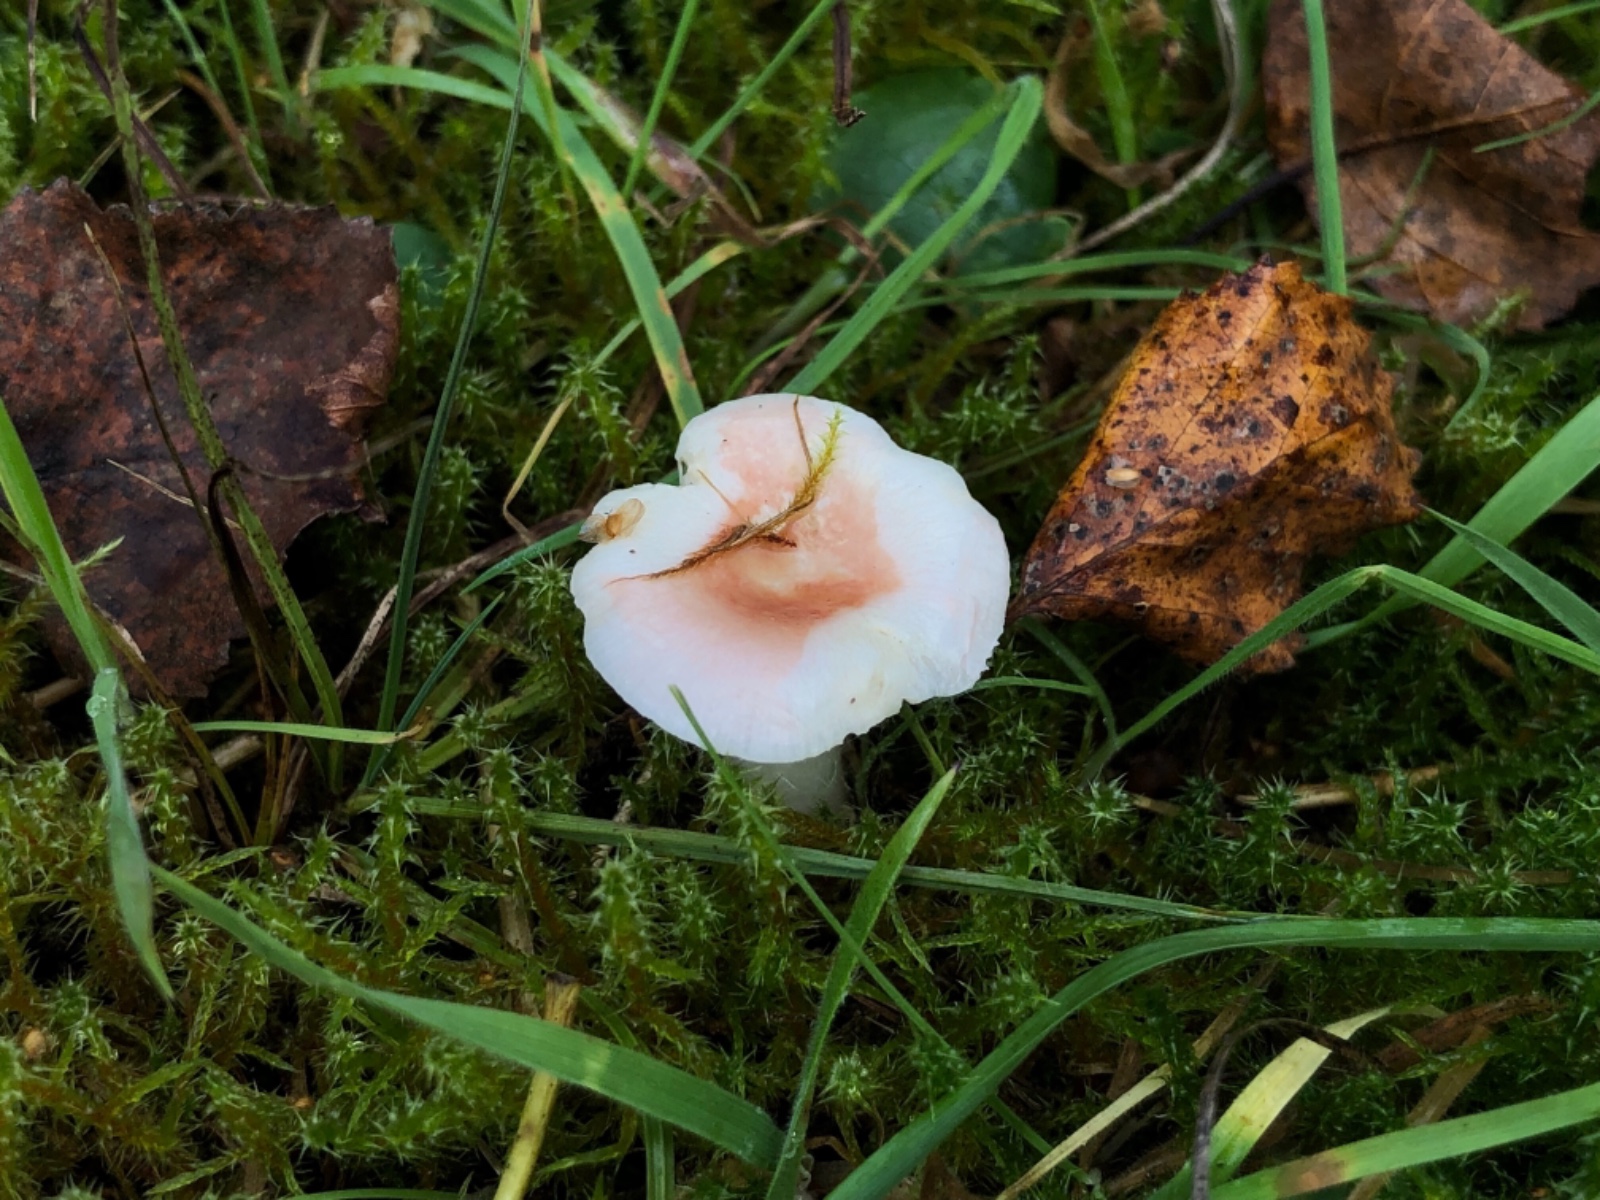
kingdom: Fungi
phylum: Basidiomycota
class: Agaricomycetes
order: Russulales
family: Russulaceae
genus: Russula
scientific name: Russula betularum
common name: bleg gift-skørhat
